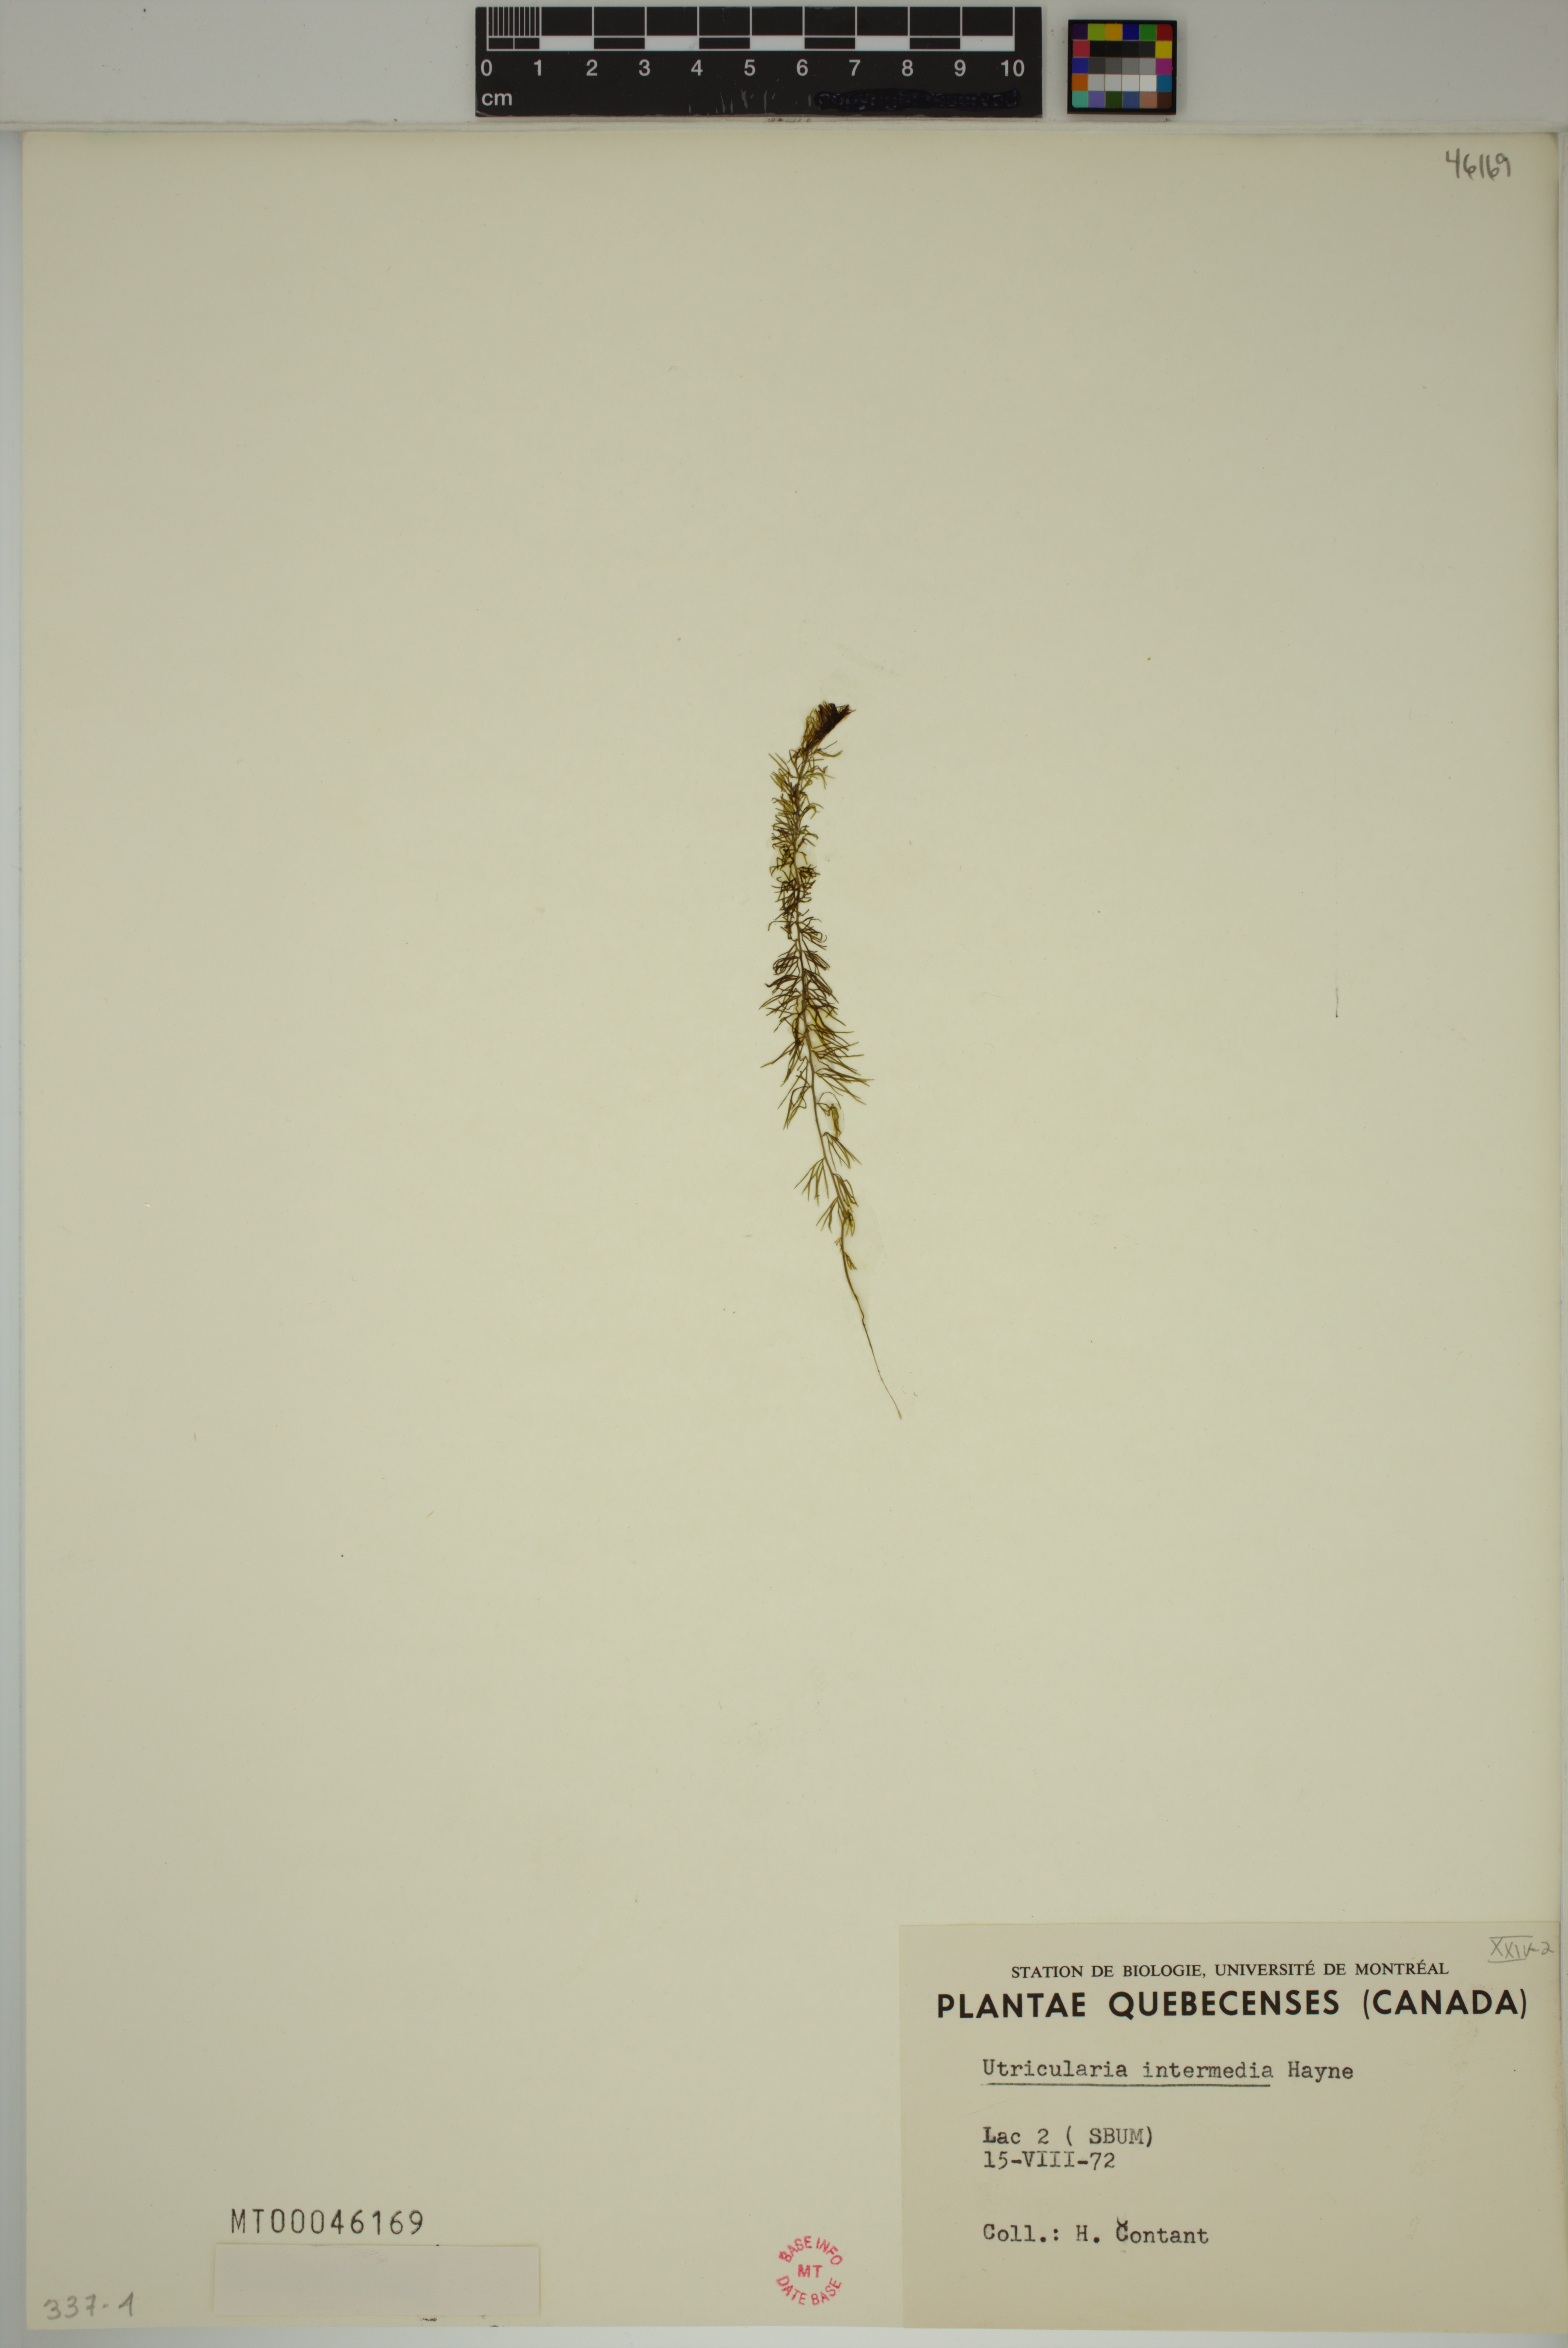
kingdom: Plantae
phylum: Tracheophyta
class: Magnoliopsida
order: Lamiales
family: Lentibulariaceae
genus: Utricularia
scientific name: Utricularia intermedia
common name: Intermediate bladderwort
